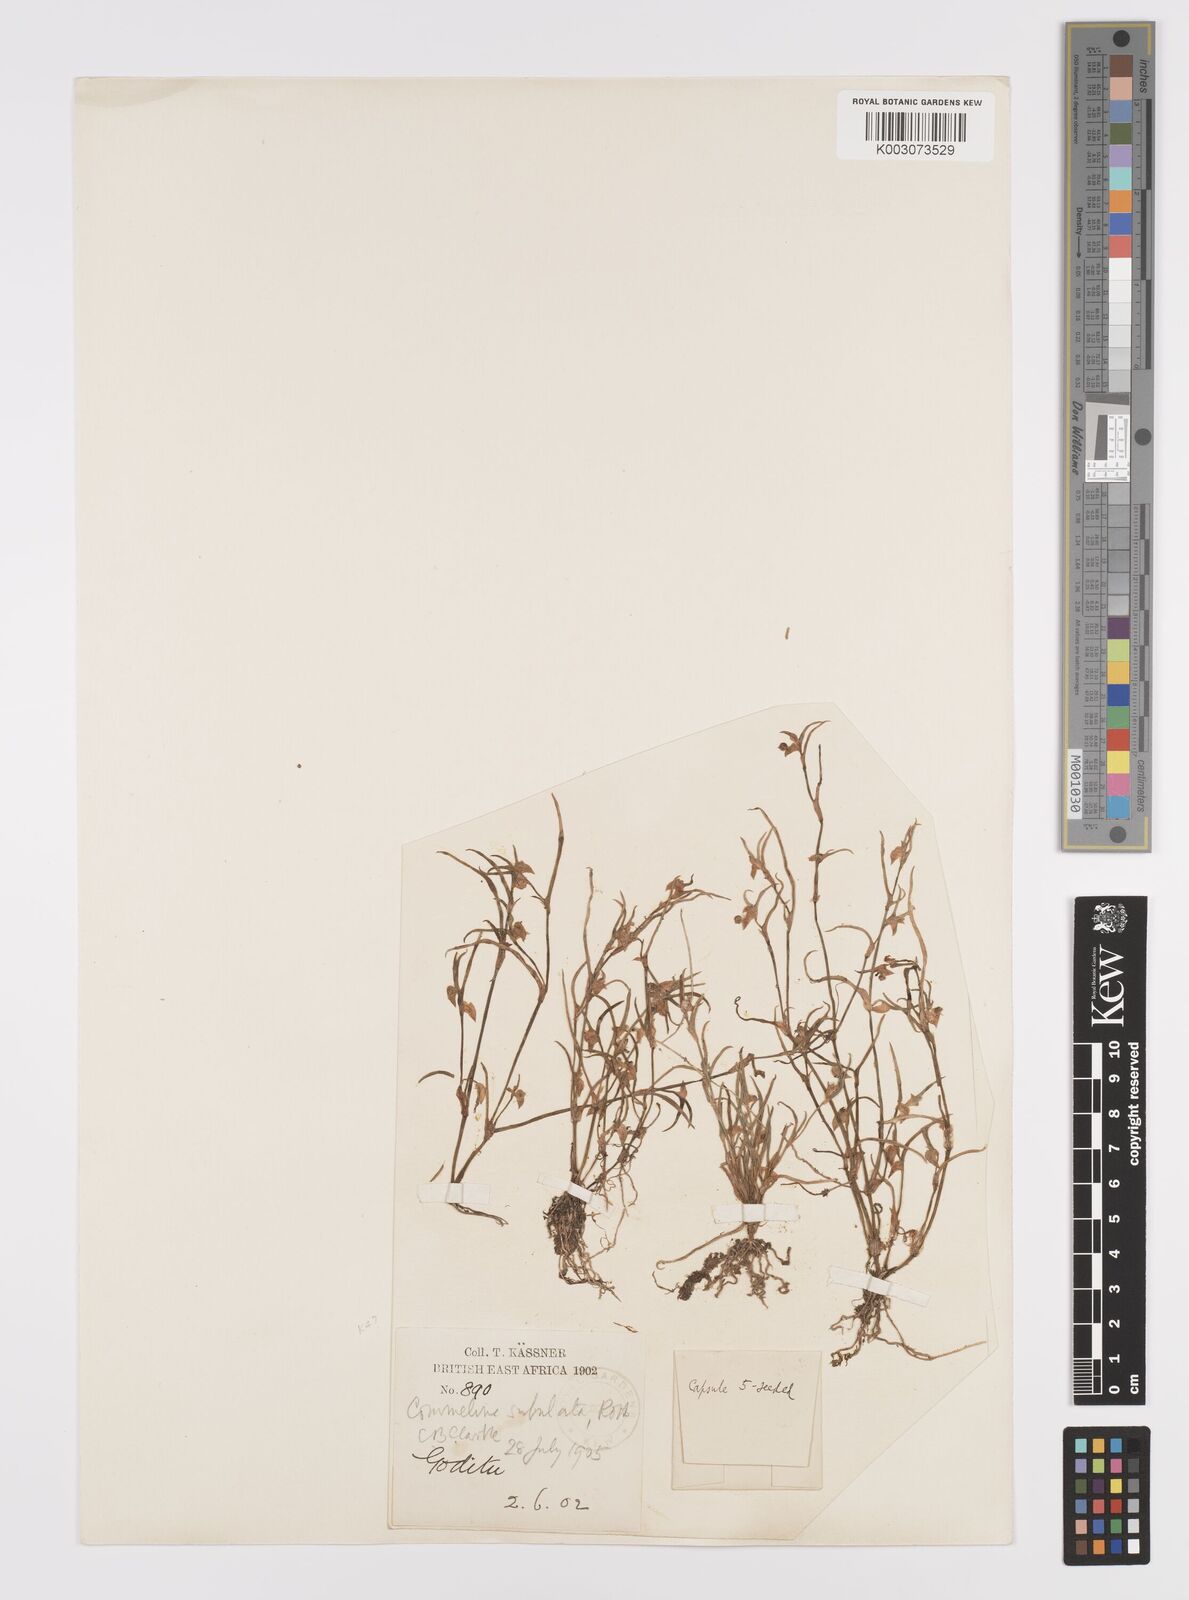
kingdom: Plantae
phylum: Tracheophyta
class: Liliopsida
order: Commelinales
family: Commelinaceae
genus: Commelina
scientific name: Commelina subulata
